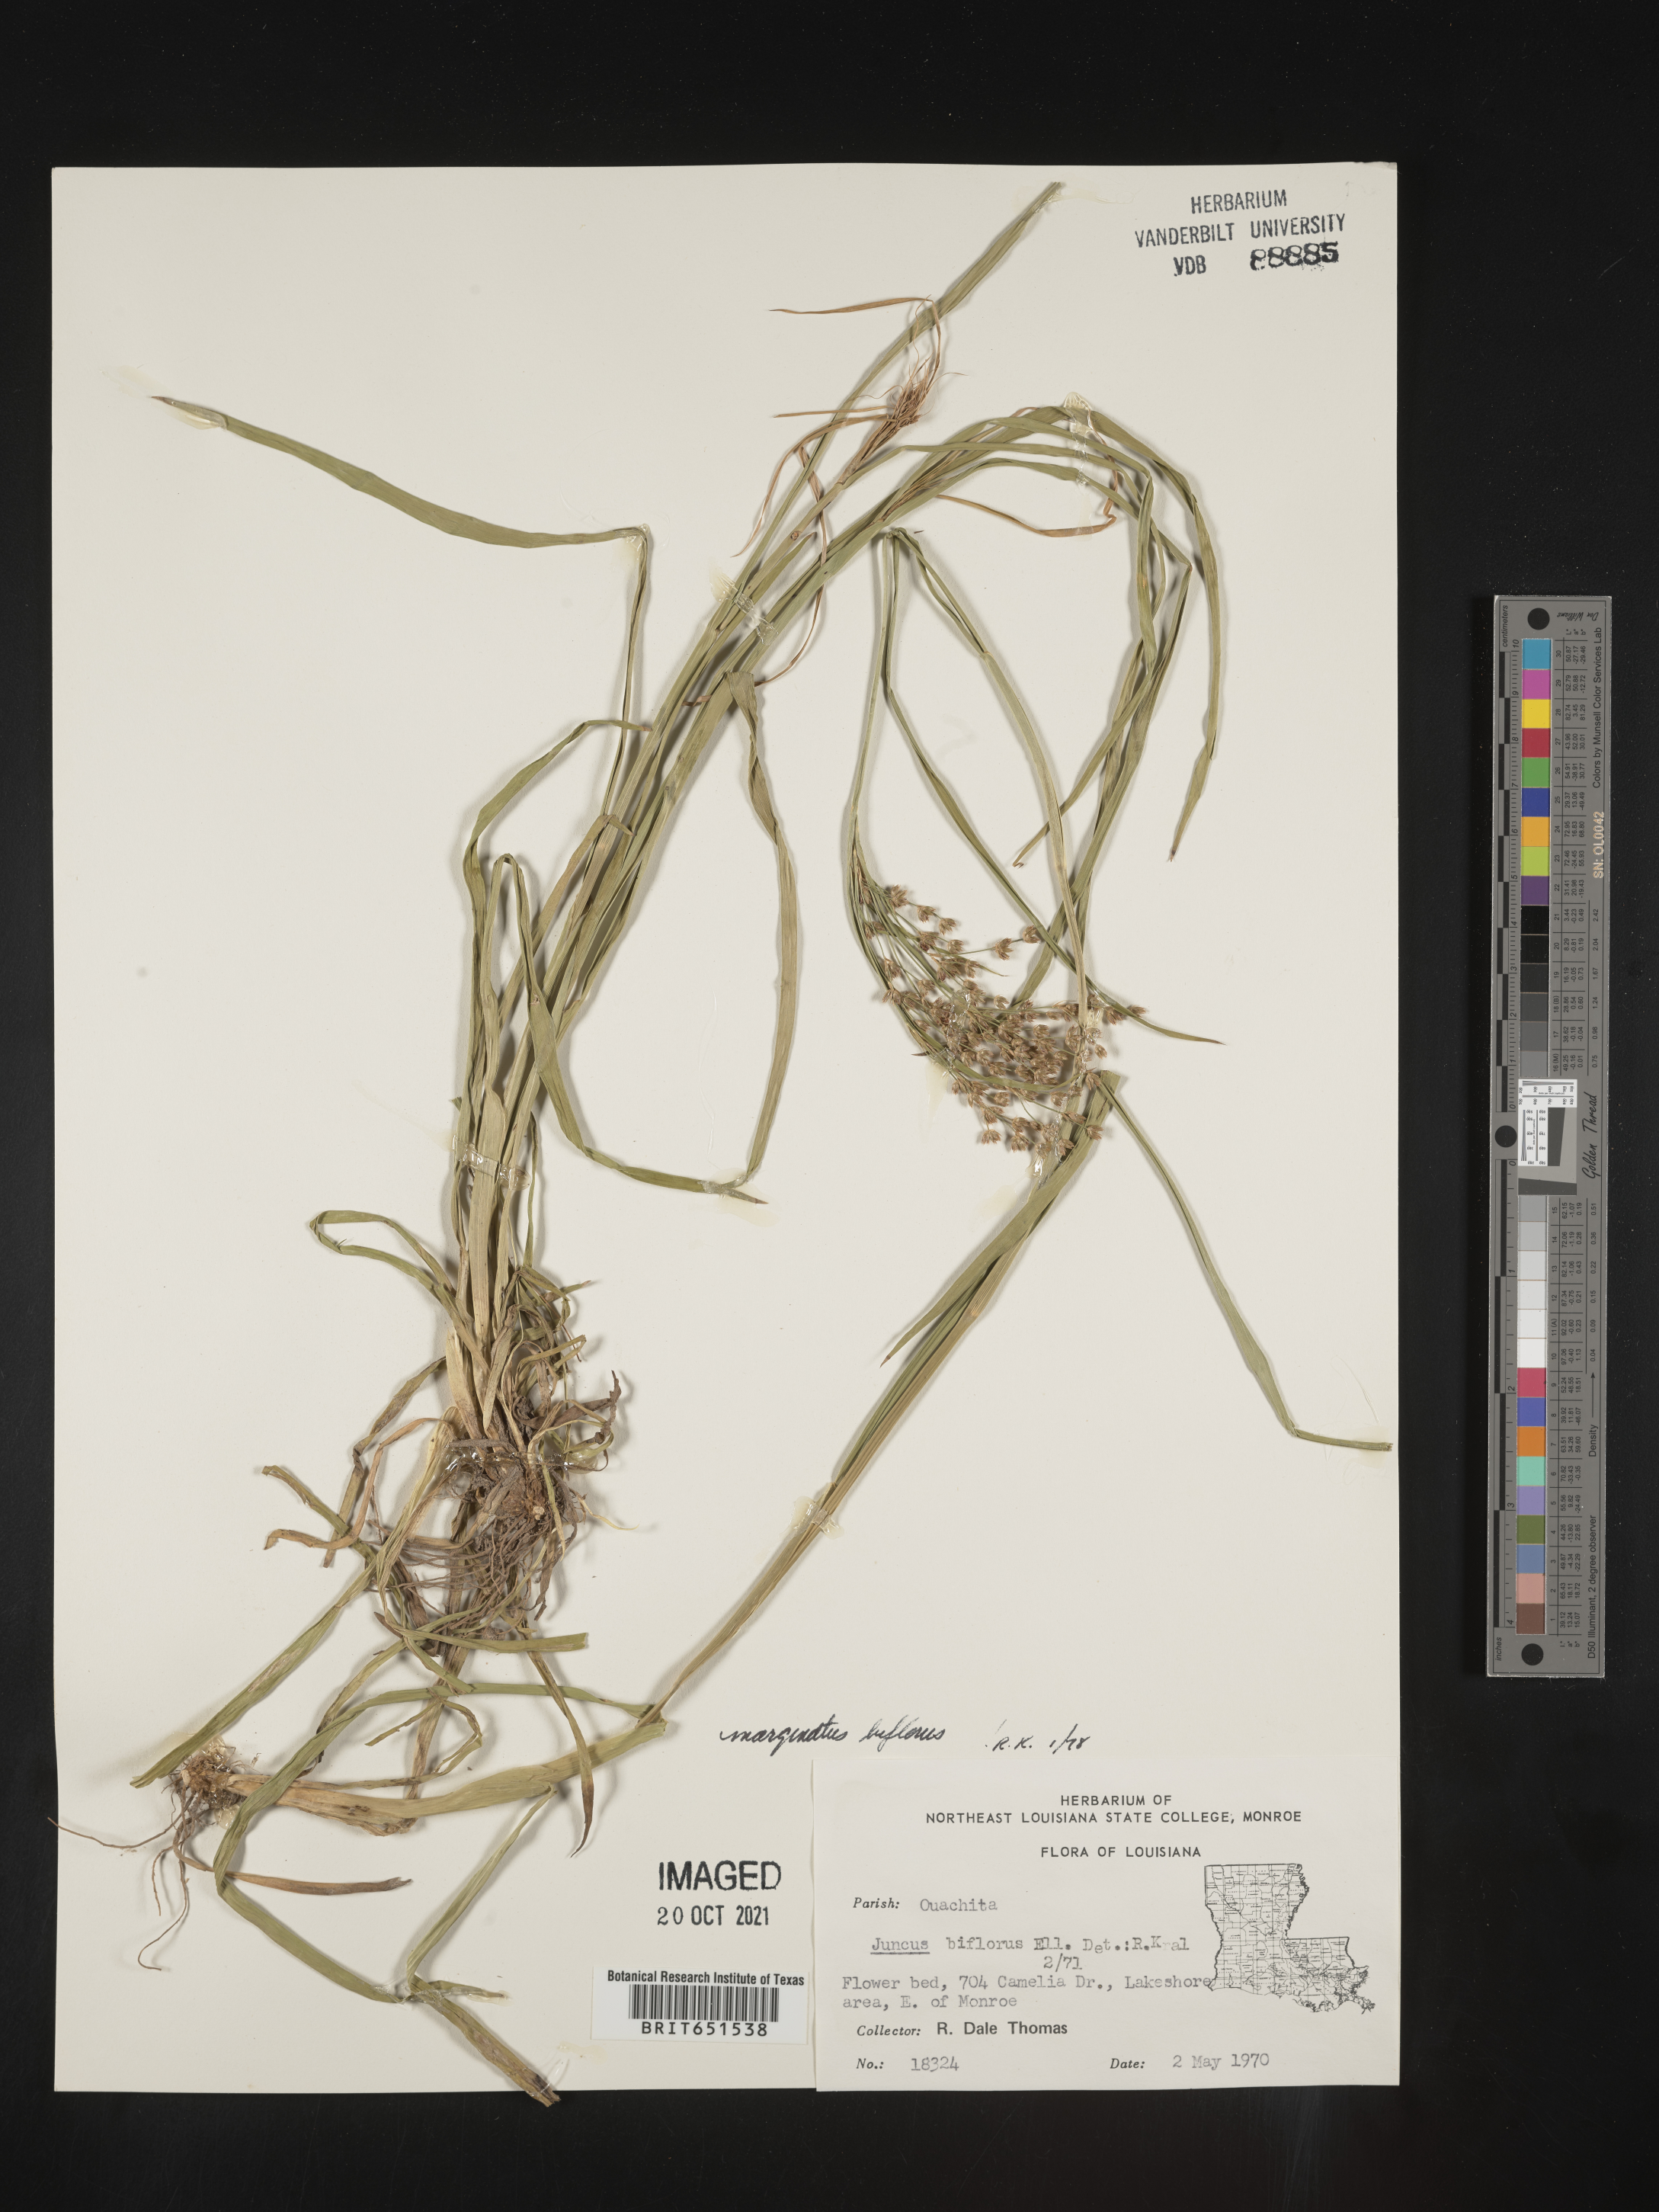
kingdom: Plantae
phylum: Tracheophyta
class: Liliopsida
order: Poales
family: Juncaceae
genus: Juncus
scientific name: Juncus biflorus
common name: Two-flowered rush
